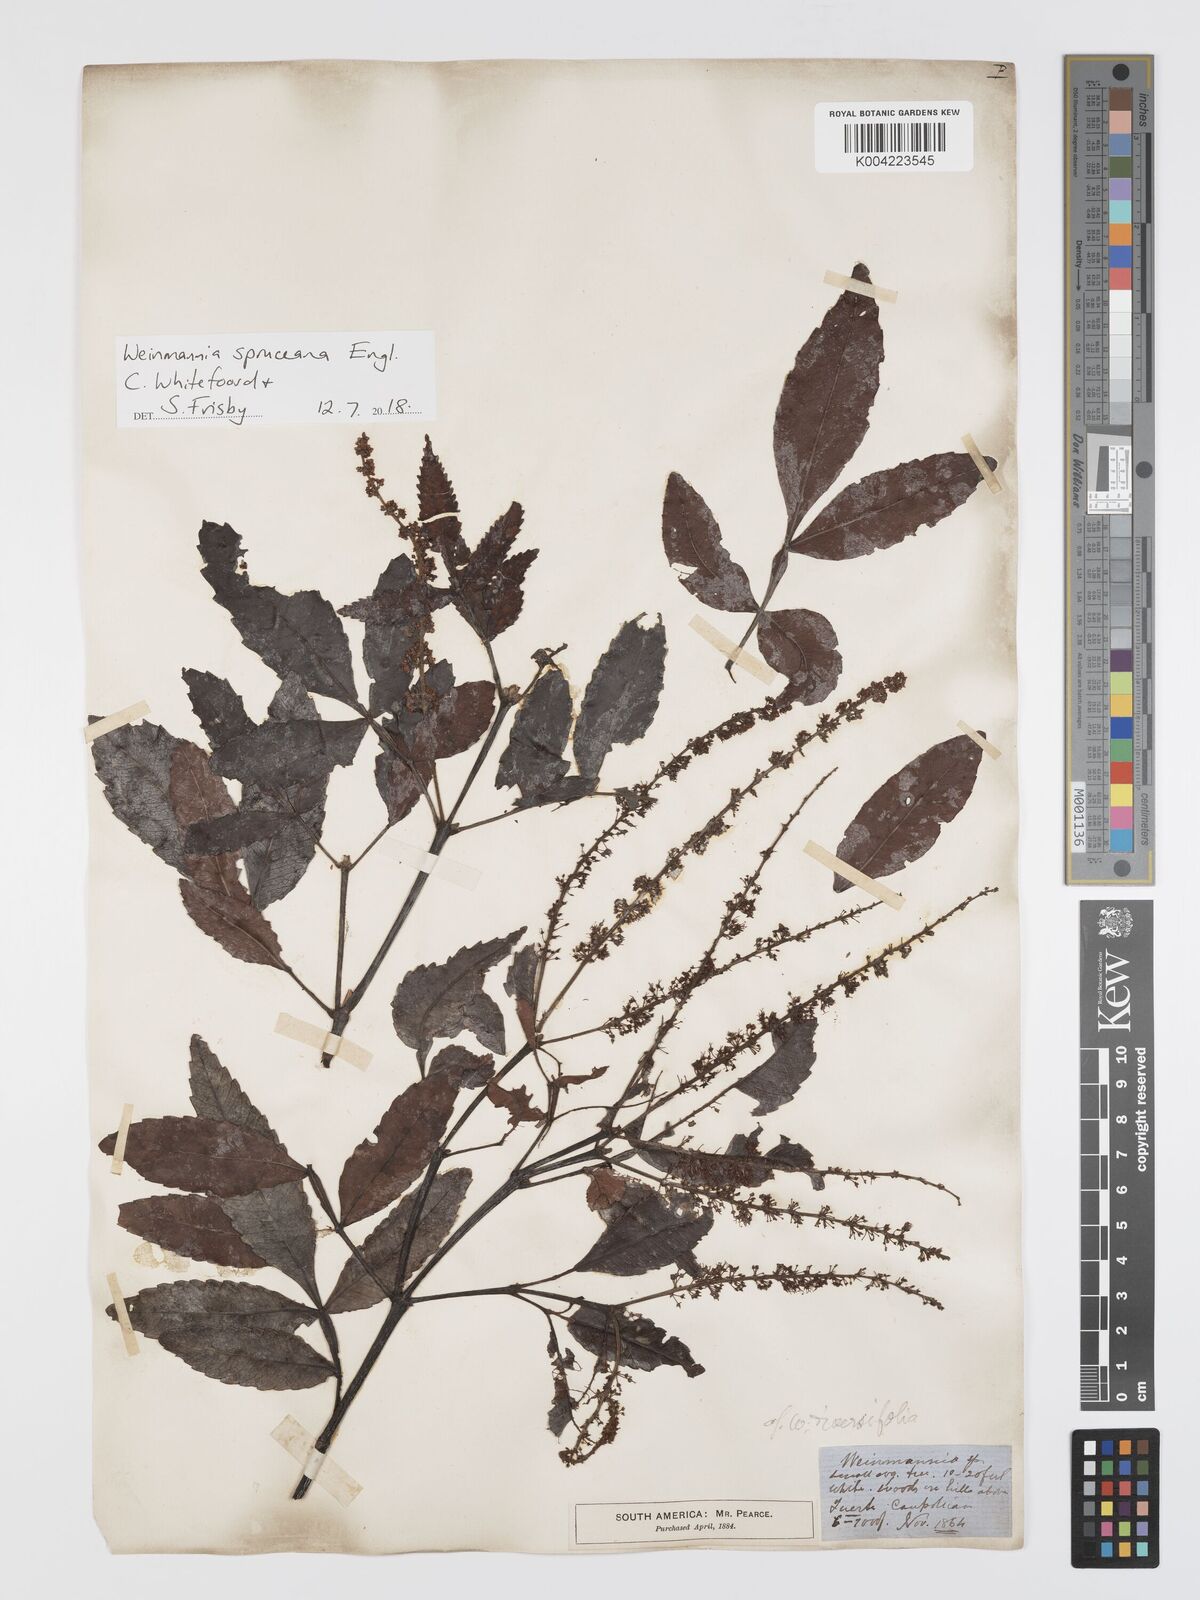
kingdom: Plantae
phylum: Tracheophyta
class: Magnoliopsida
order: Oxalidales
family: Cunoniaceae
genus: Weinmannia
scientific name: Weinmannia spruceana
